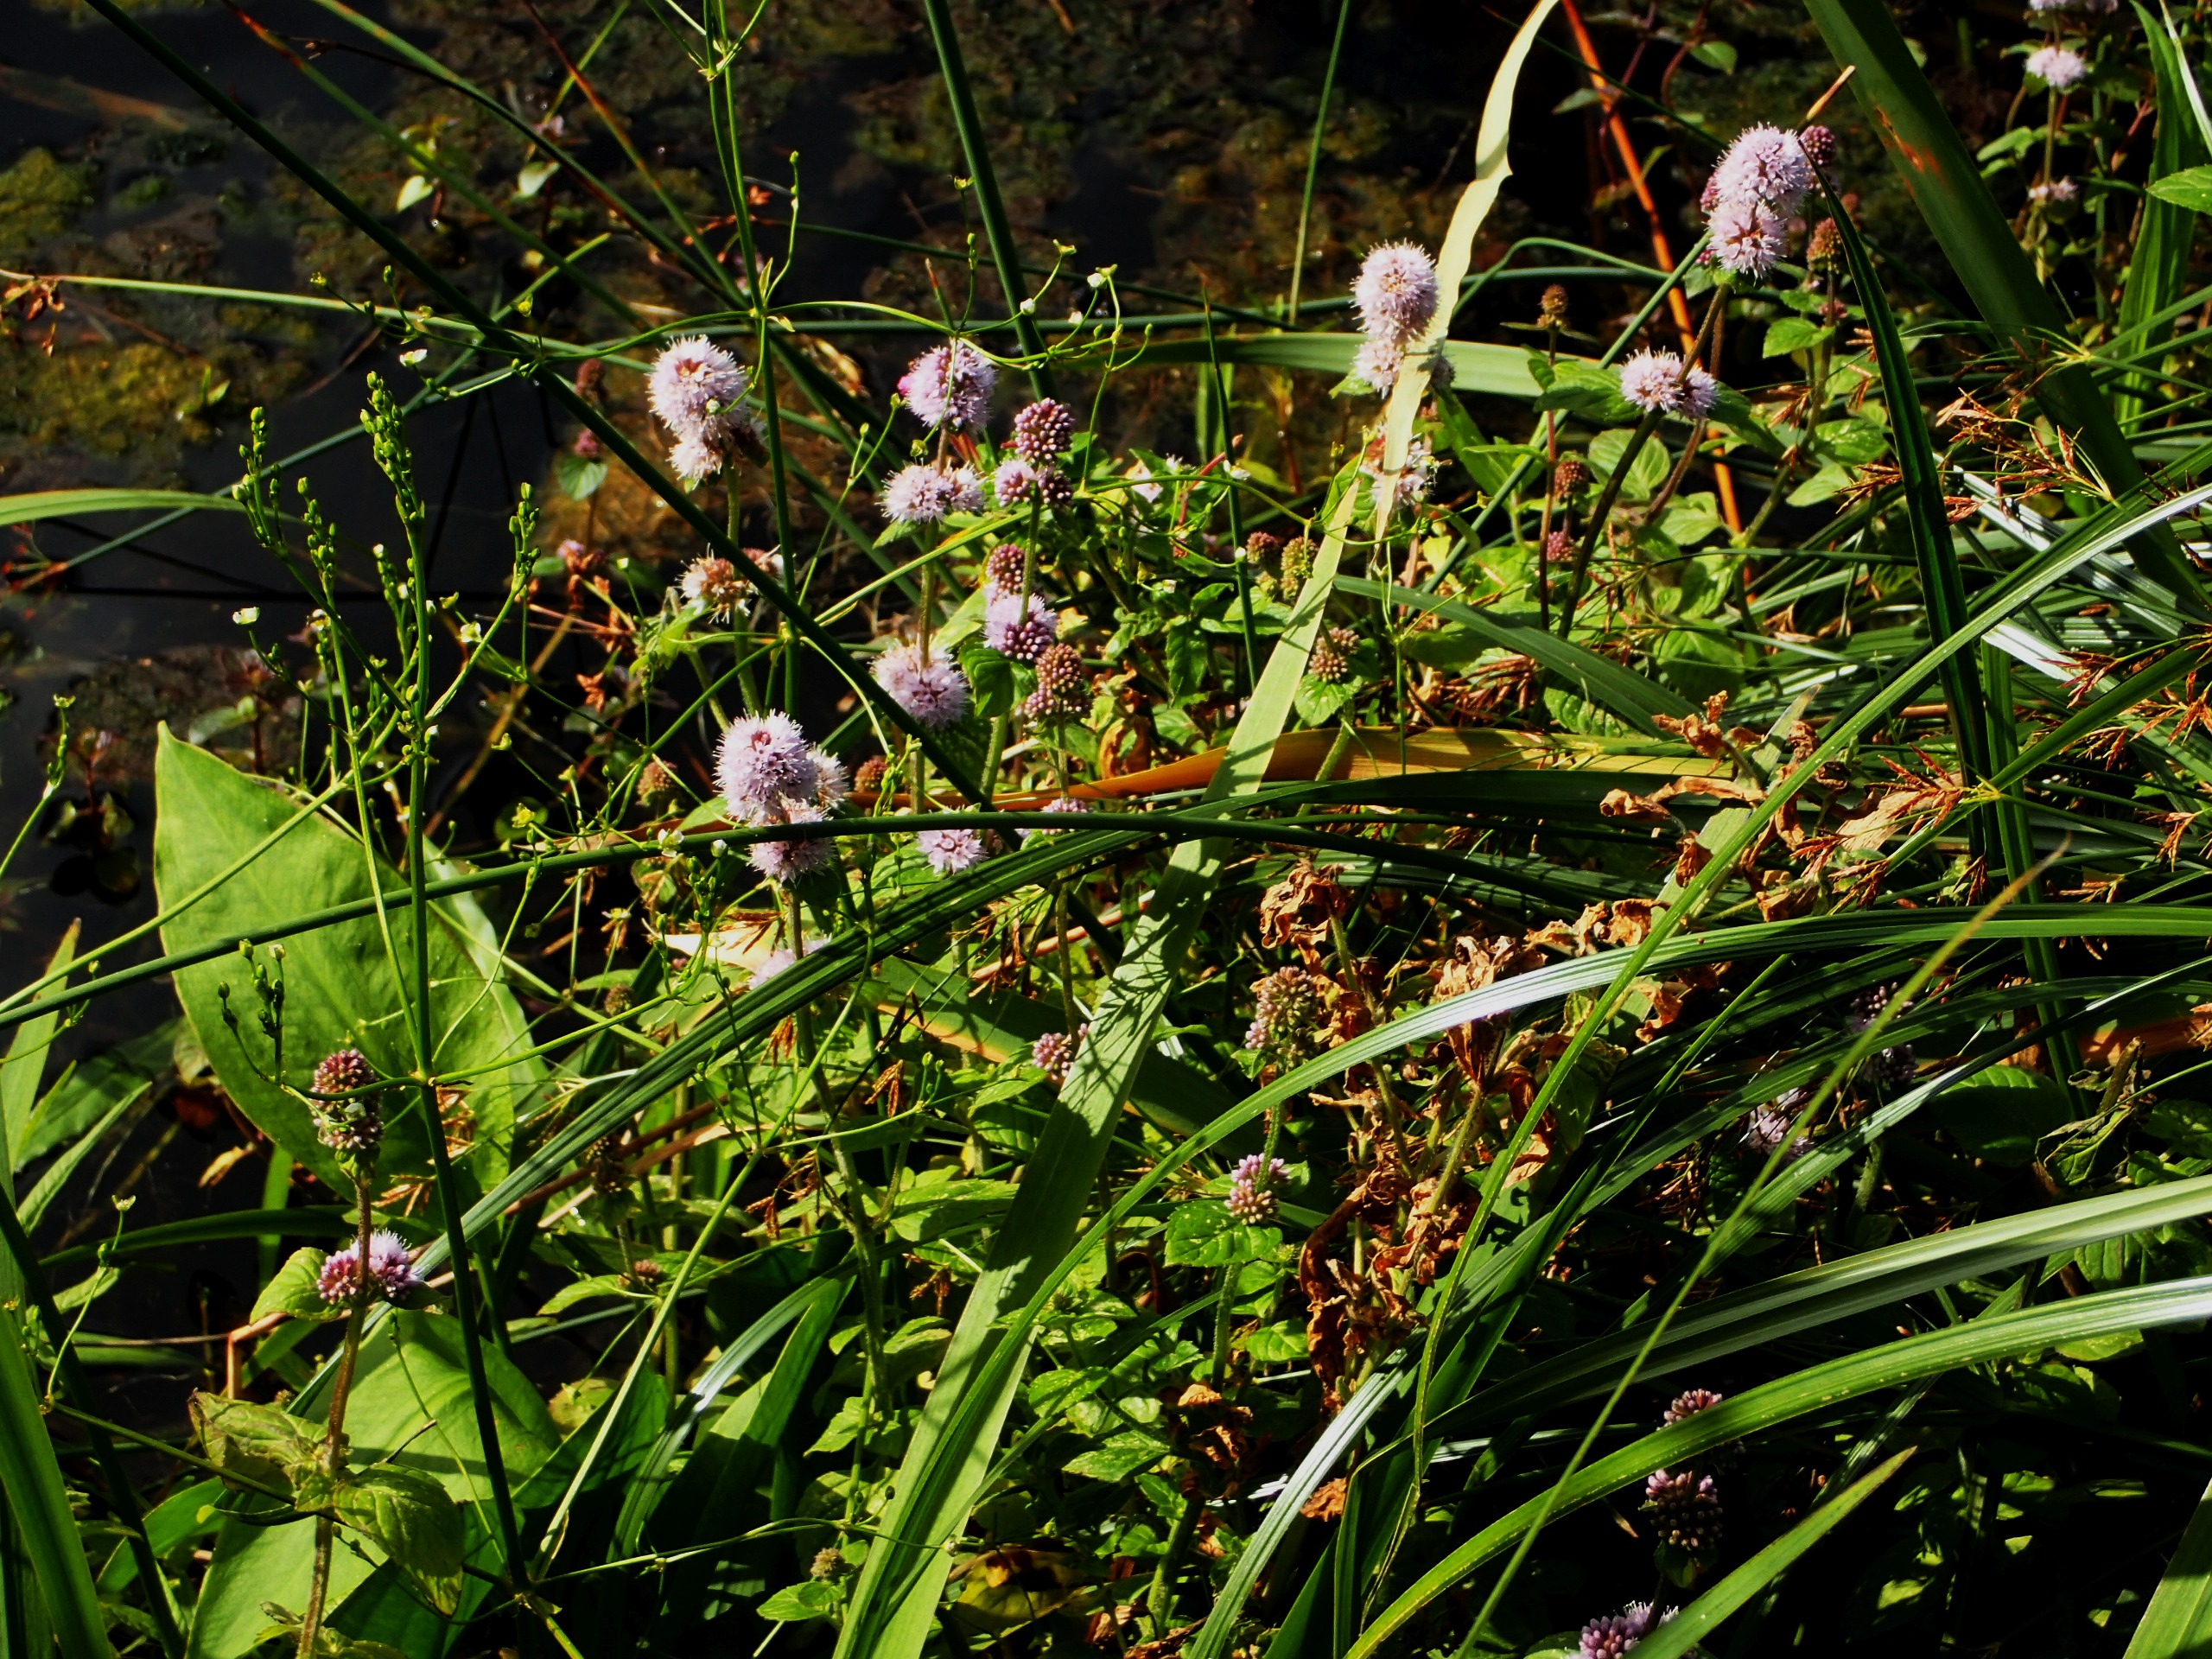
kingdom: Plantae
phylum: Tracheophyta
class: Magnoliopsida
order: Lamiales
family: Lamiaceae
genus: Mentha
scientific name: Mentha aquatica
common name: Vand-mynte
